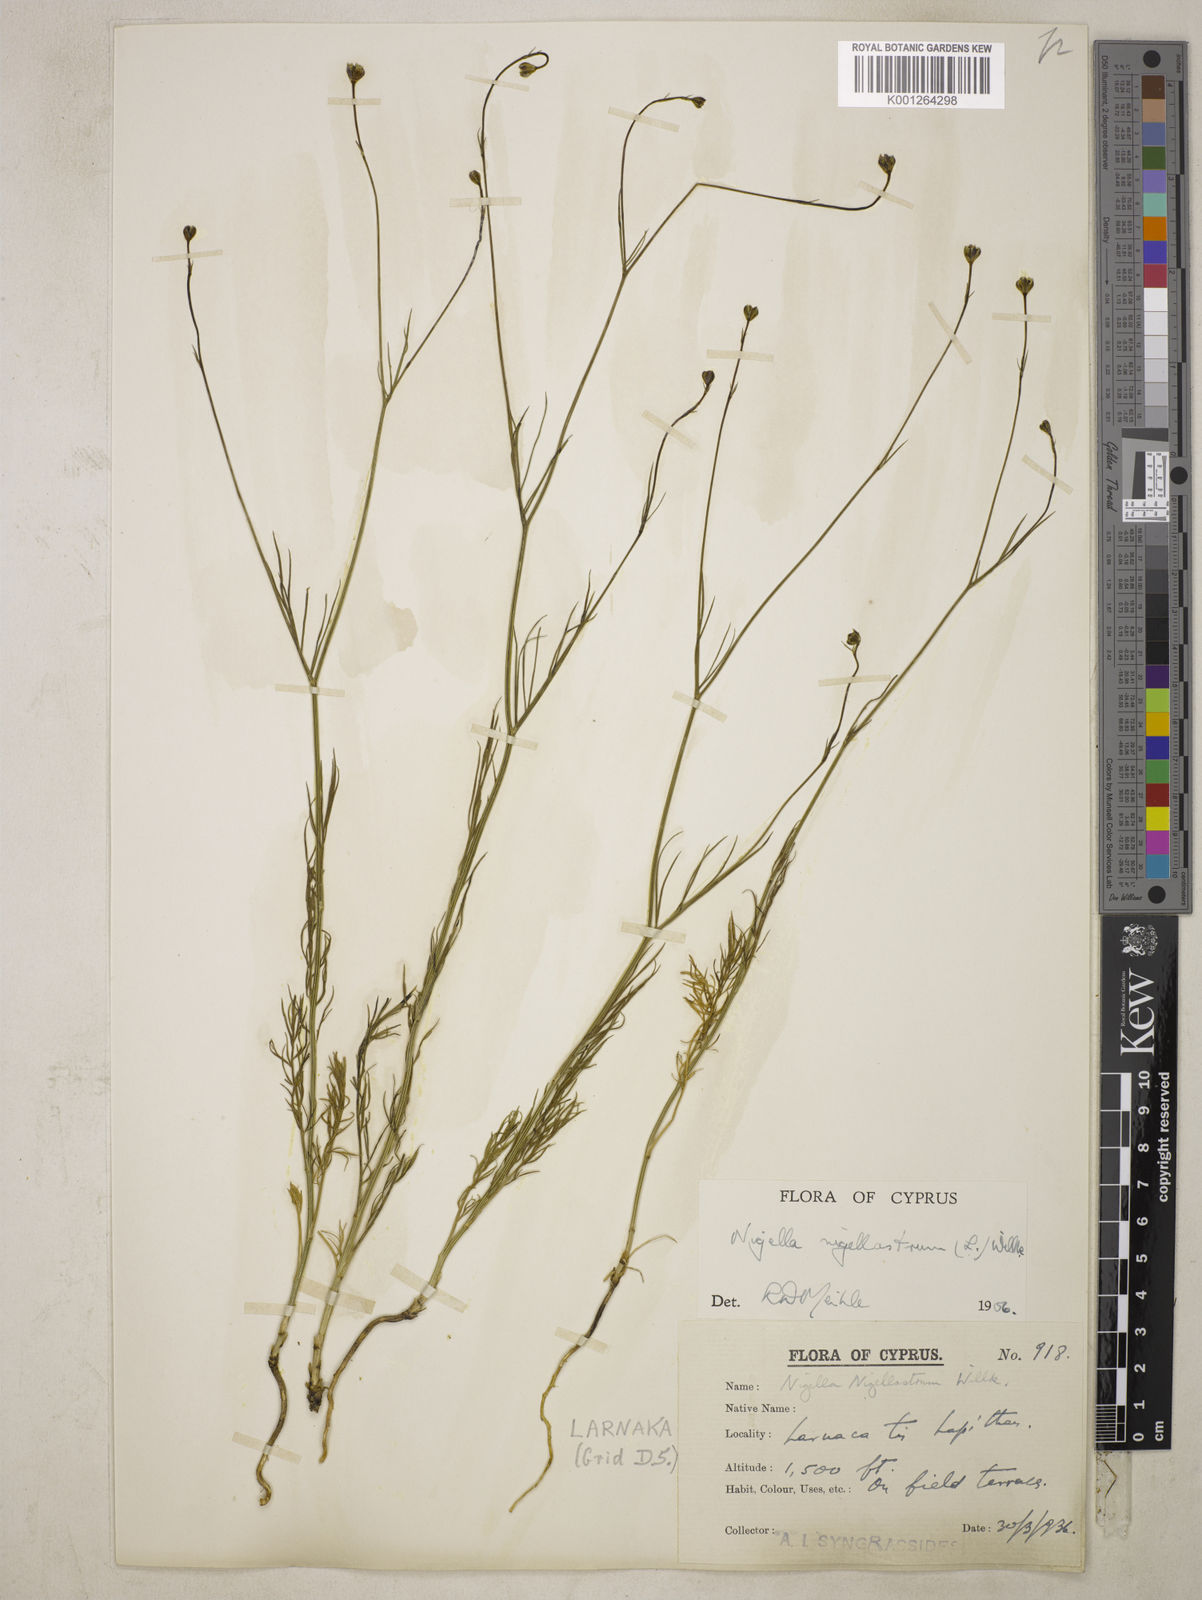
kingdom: Plantae
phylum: Tracheophyta
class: Magnoliopsida
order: Ranunculales
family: Ranunculaceae
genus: Garidella
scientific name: Garidella nigellastrum
